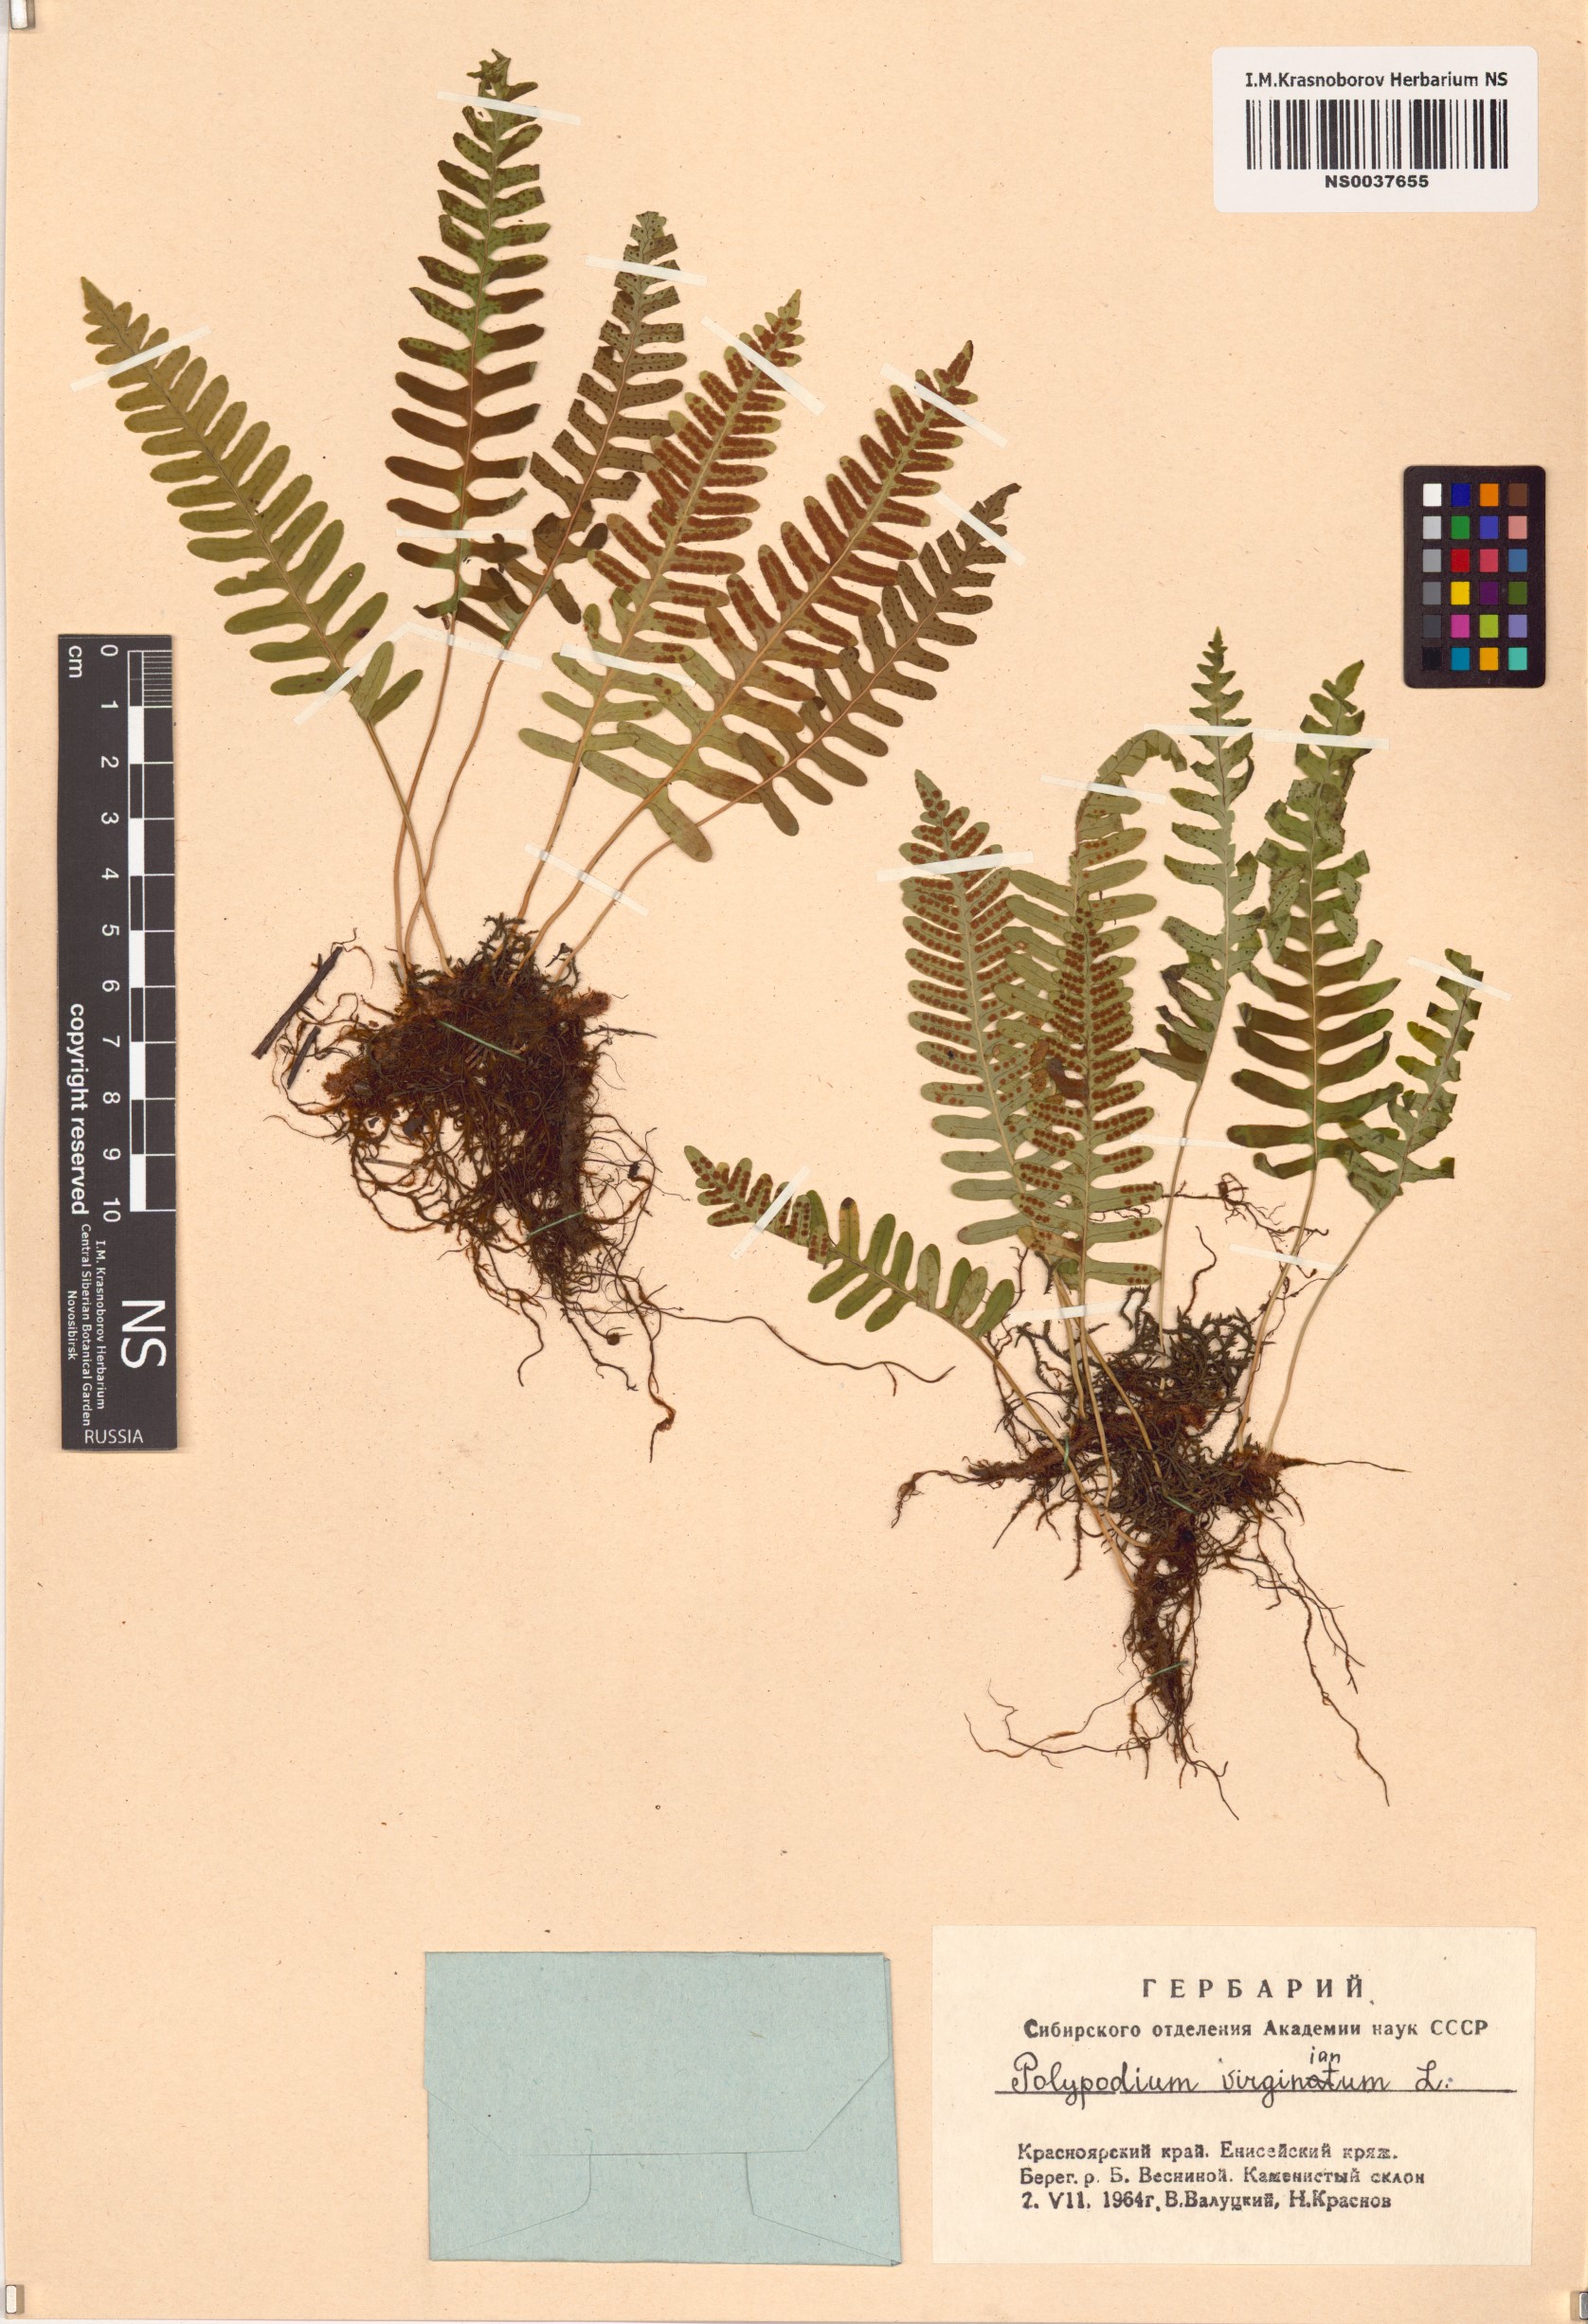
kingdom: Plantae
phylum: Tracheophyta
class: Polypodiopsida
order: Polypodiales
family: Polypodiaceae
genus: Polypodium
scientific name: Polypodium virginianum
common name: American wall fern
